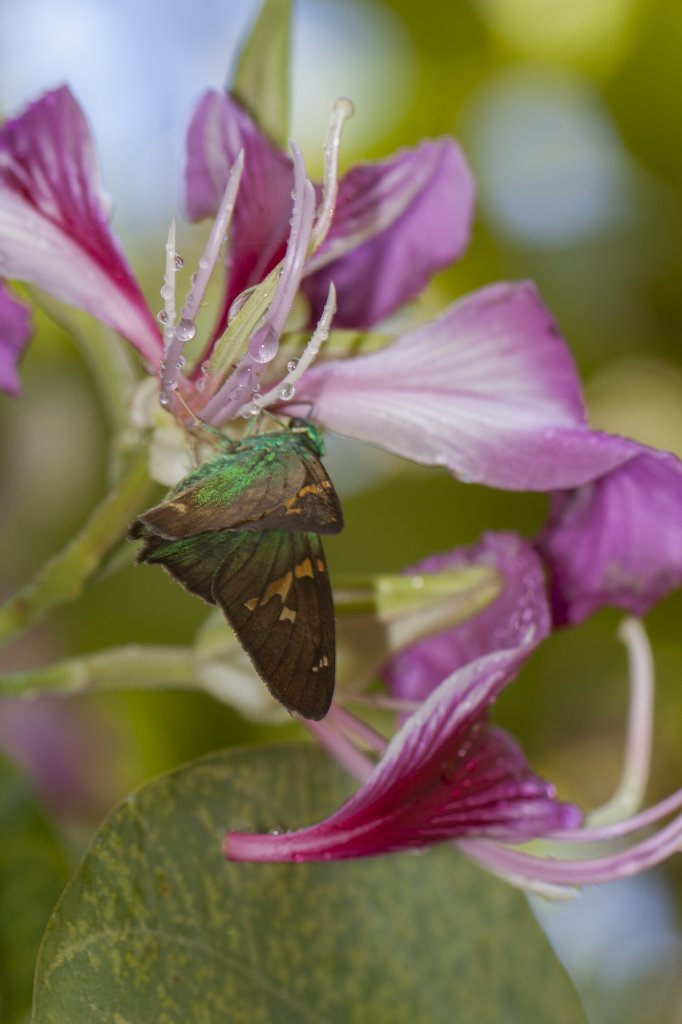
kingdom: Animalia
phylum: Arthropoda
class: Insecta
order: Lepidoptera
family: Hesperiidae
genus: Astraptes
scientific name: Astraptes talus
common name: Green Flasher
